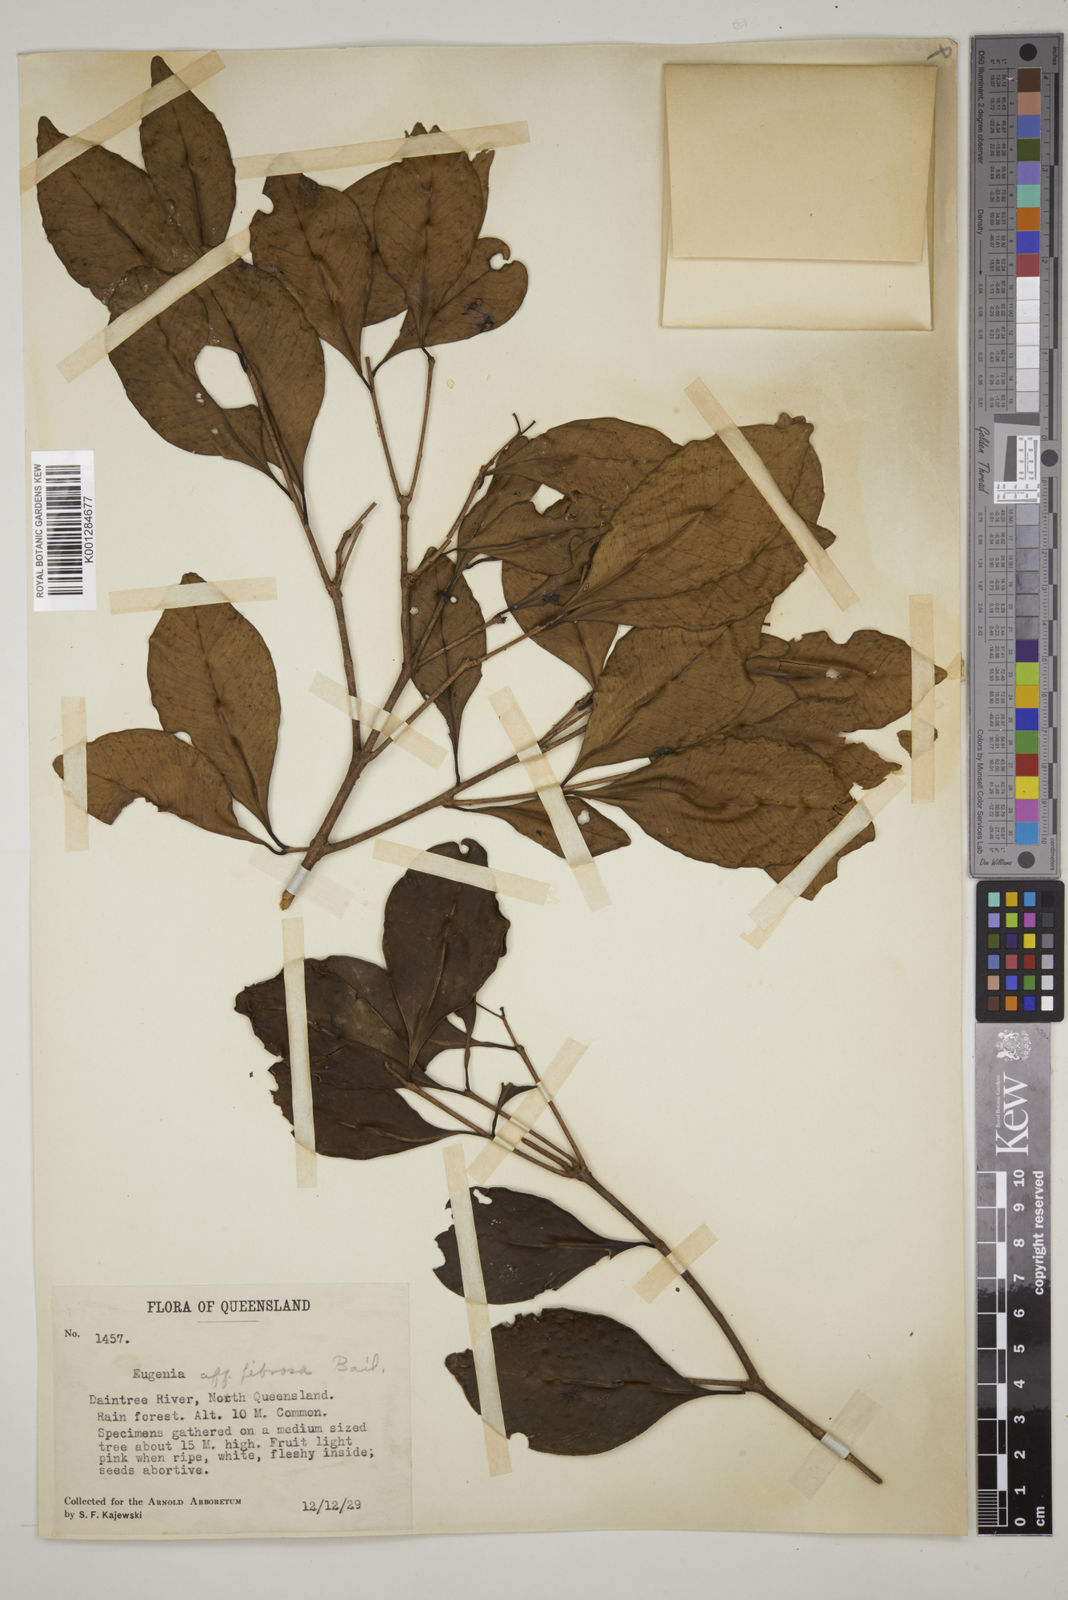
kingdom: Plantae
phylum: Tracheophyta
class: Magnoliopsida
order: Myrtales
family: Myrtaceae
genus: Syzygium
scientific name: Syzygium fibrosum
